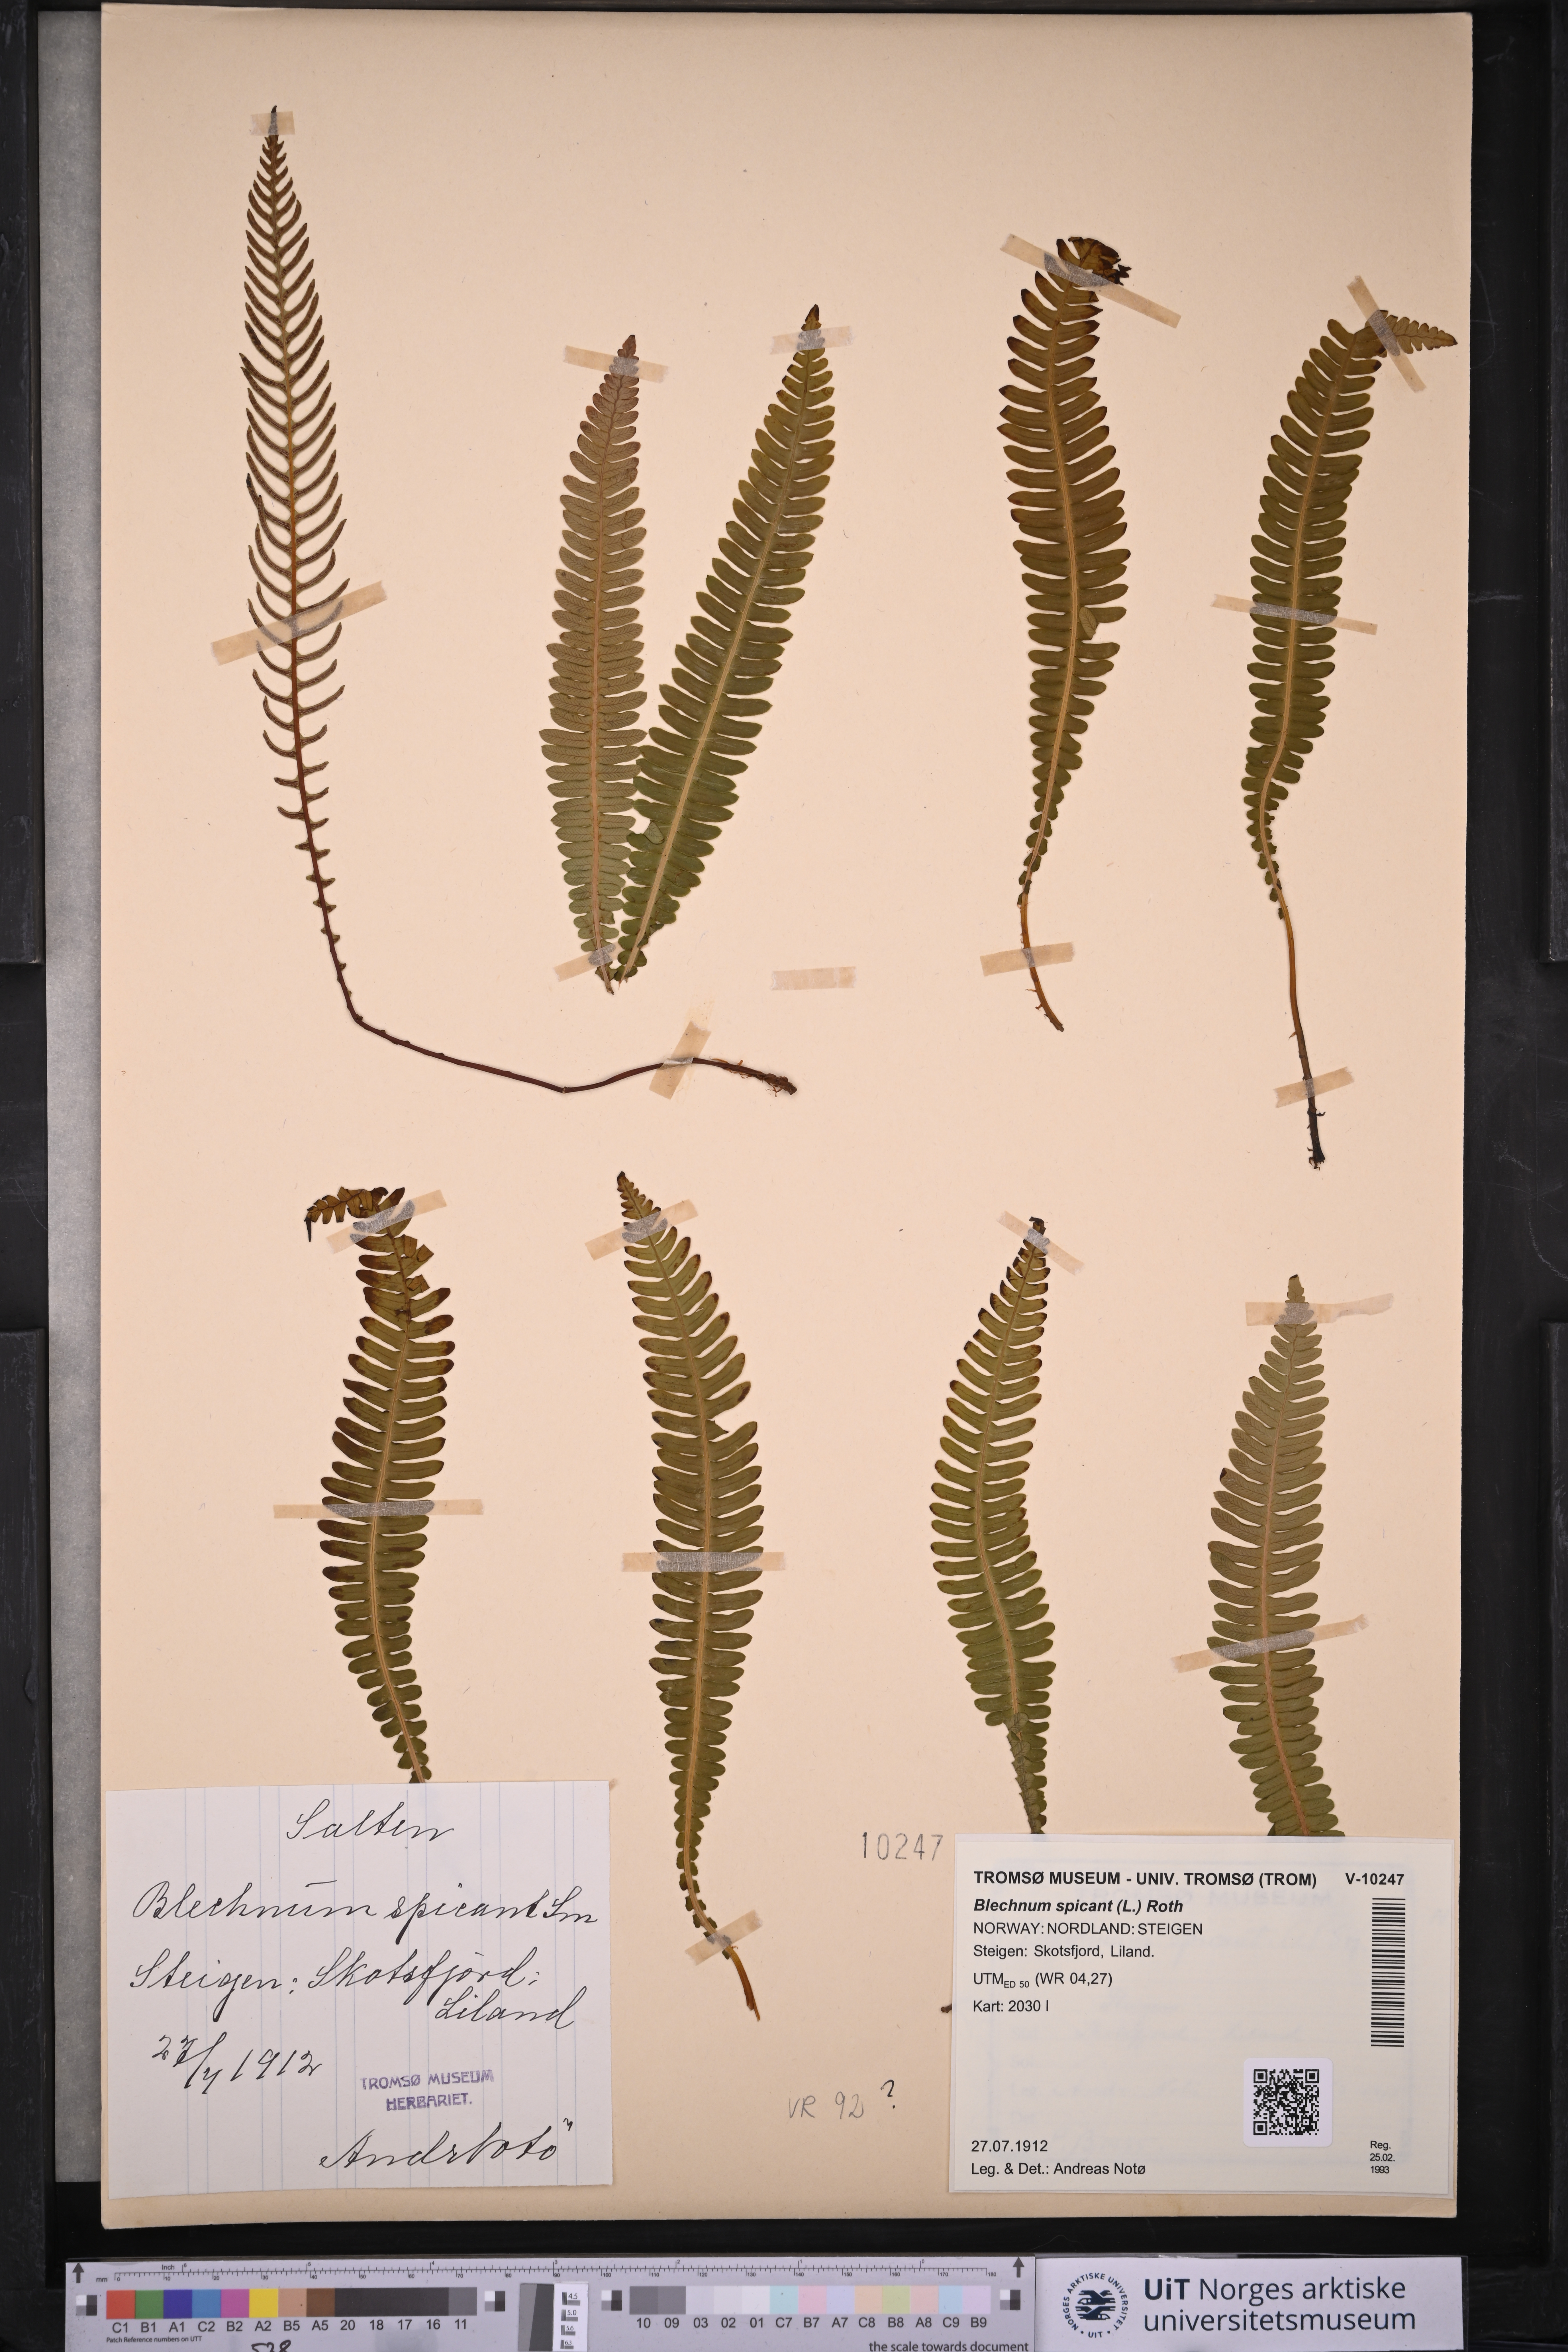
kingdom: Plantae
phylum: Tracheophyta
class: Polypodiopsida
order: Polypodiales
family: Blechnaceae
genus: Struthiopteris
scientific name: Struthiopteris spicant
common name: Deer fern
